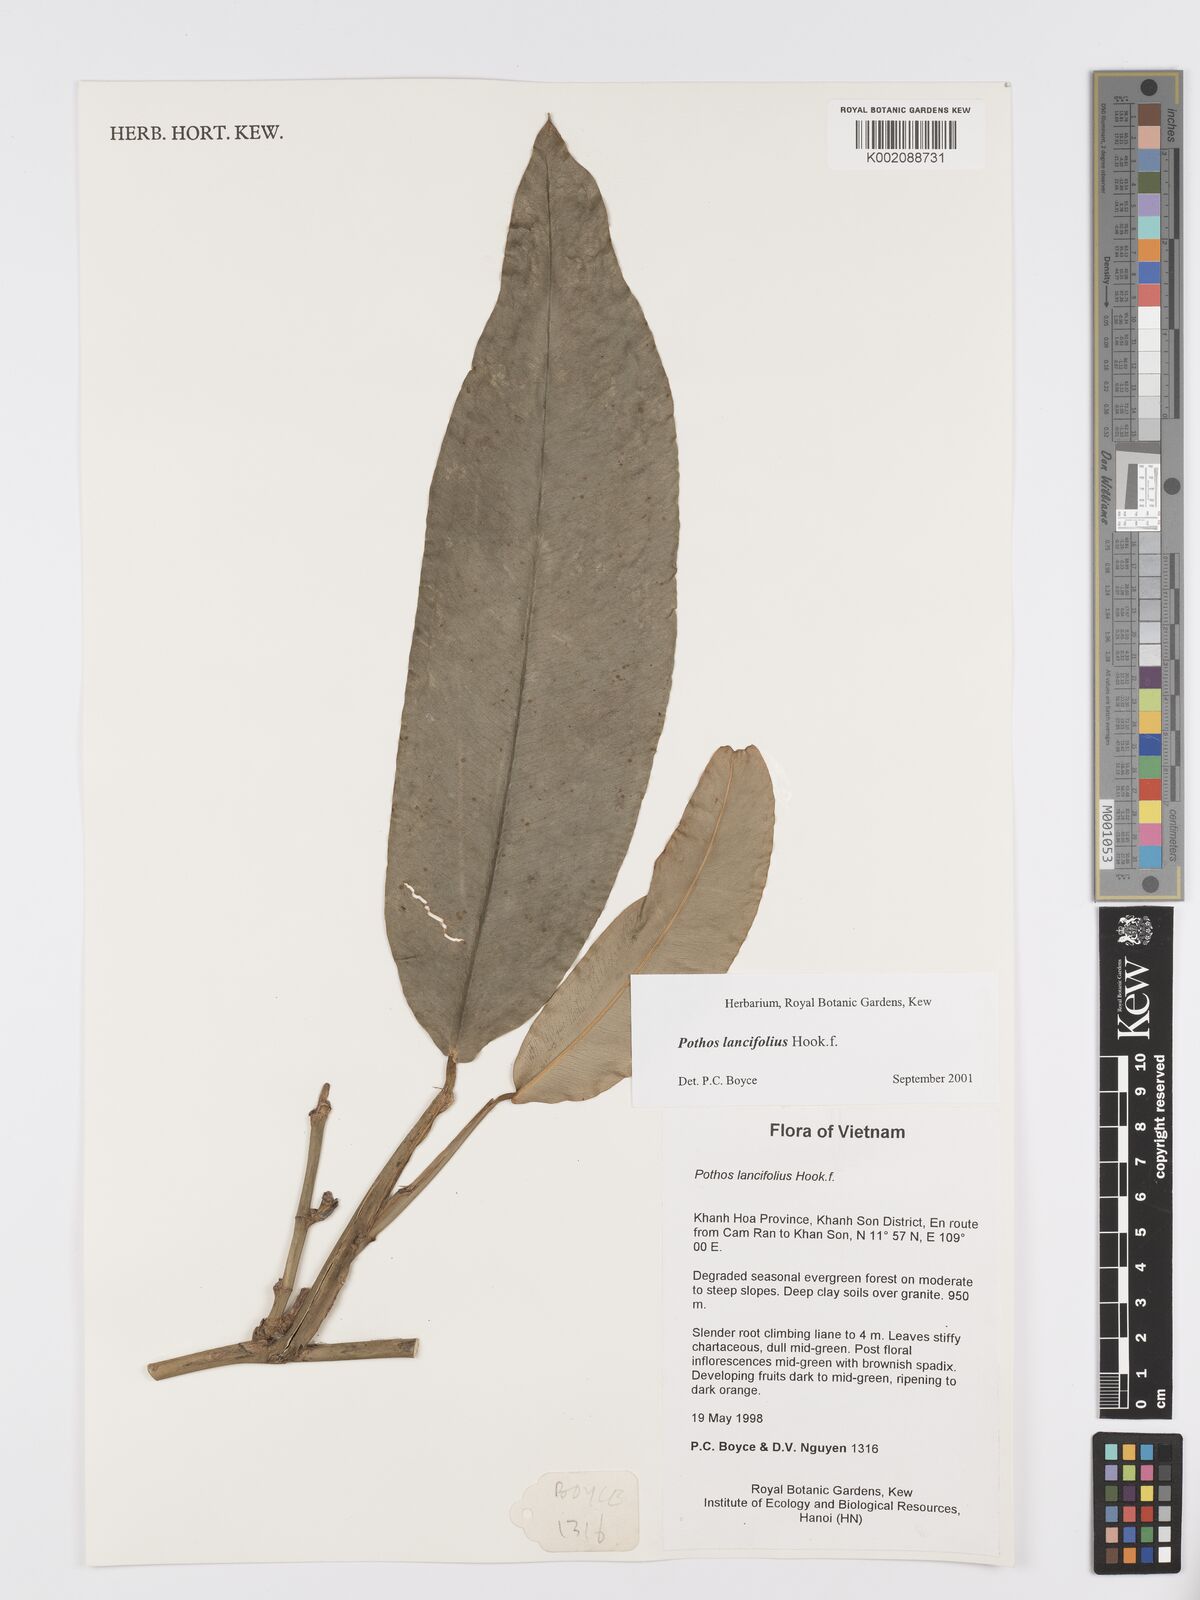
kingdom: Plantae
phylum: Tracheophyta
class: Liliopsida
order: Alismatales
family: Araceae
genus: Pothos
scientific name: Pothos lancifolius
